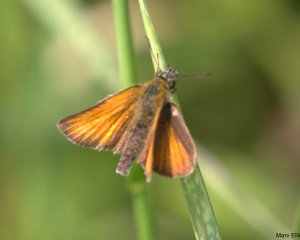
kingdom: Animalia
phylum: Arthropoda
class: Insecta
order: Lepidoptera
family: Hesperiidae
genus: Thymelicus
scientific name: Thymelicus lineola
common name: European Skipper
